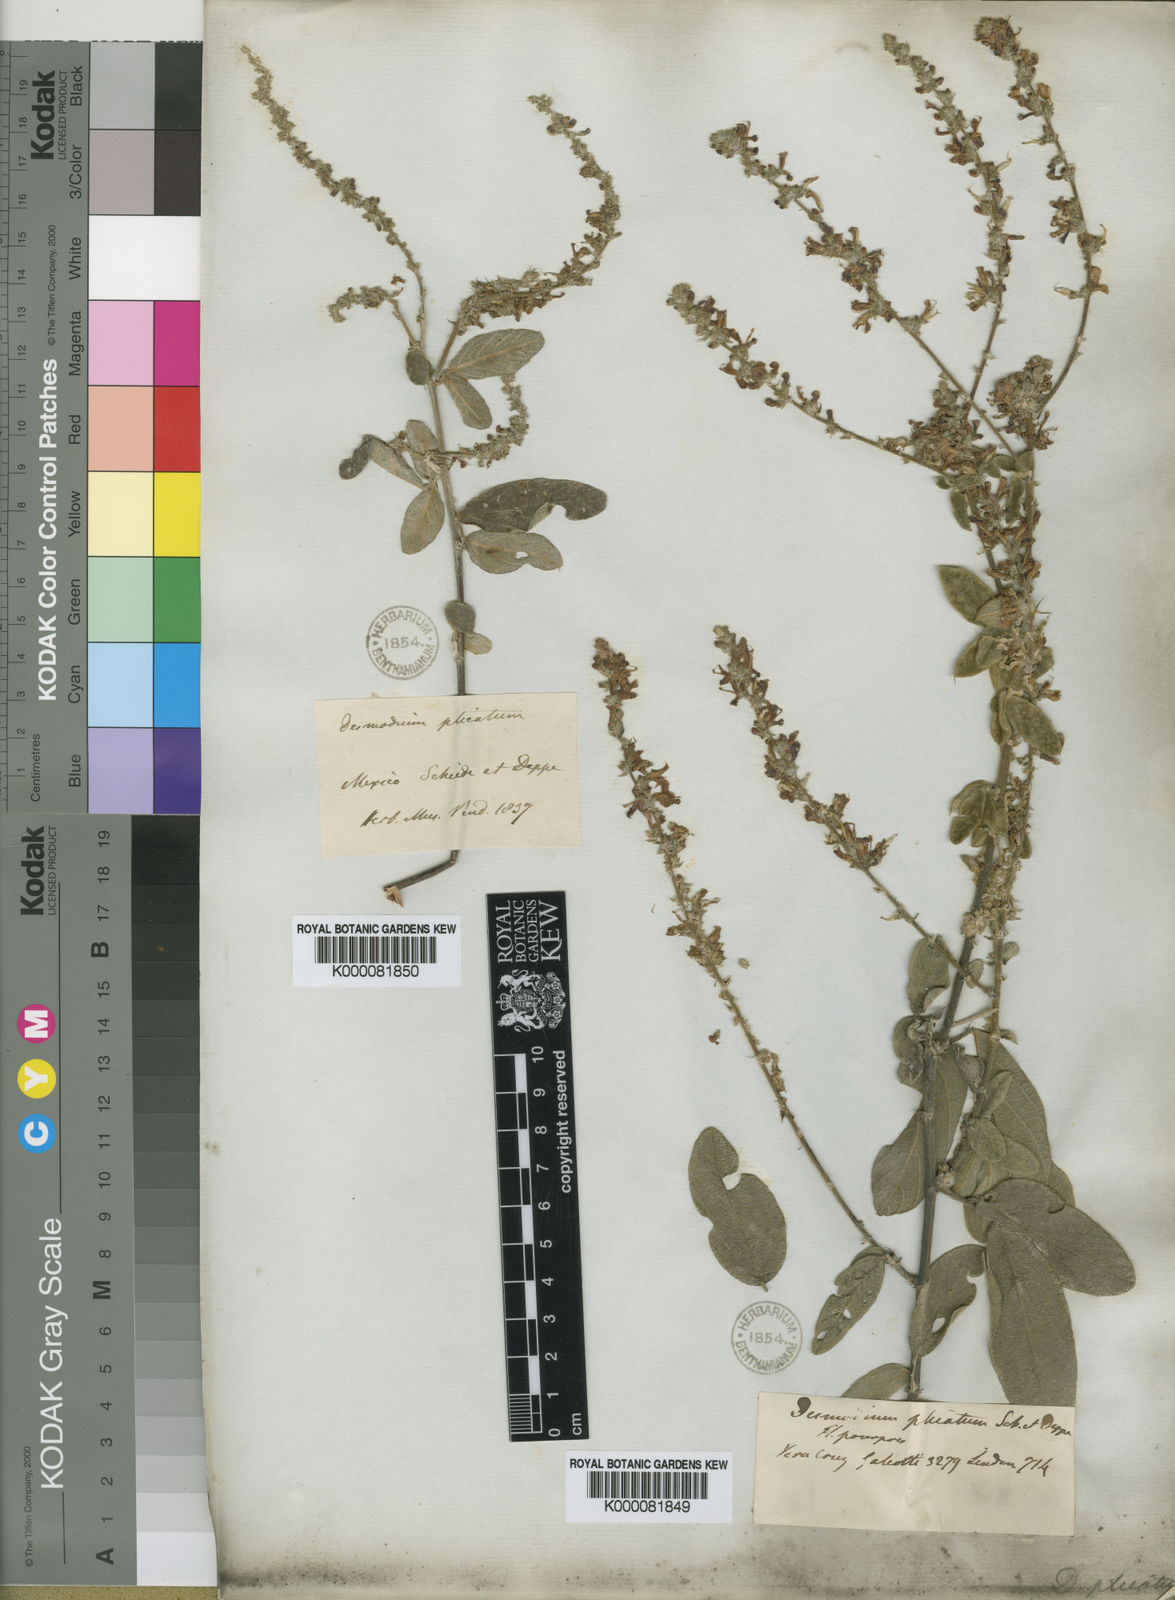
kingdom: Plantae
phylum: Tracheophyta
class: Magnoliopsida
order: Fabales
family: Fabaceae
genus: Desmodium
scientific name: Desmodium plicatum
